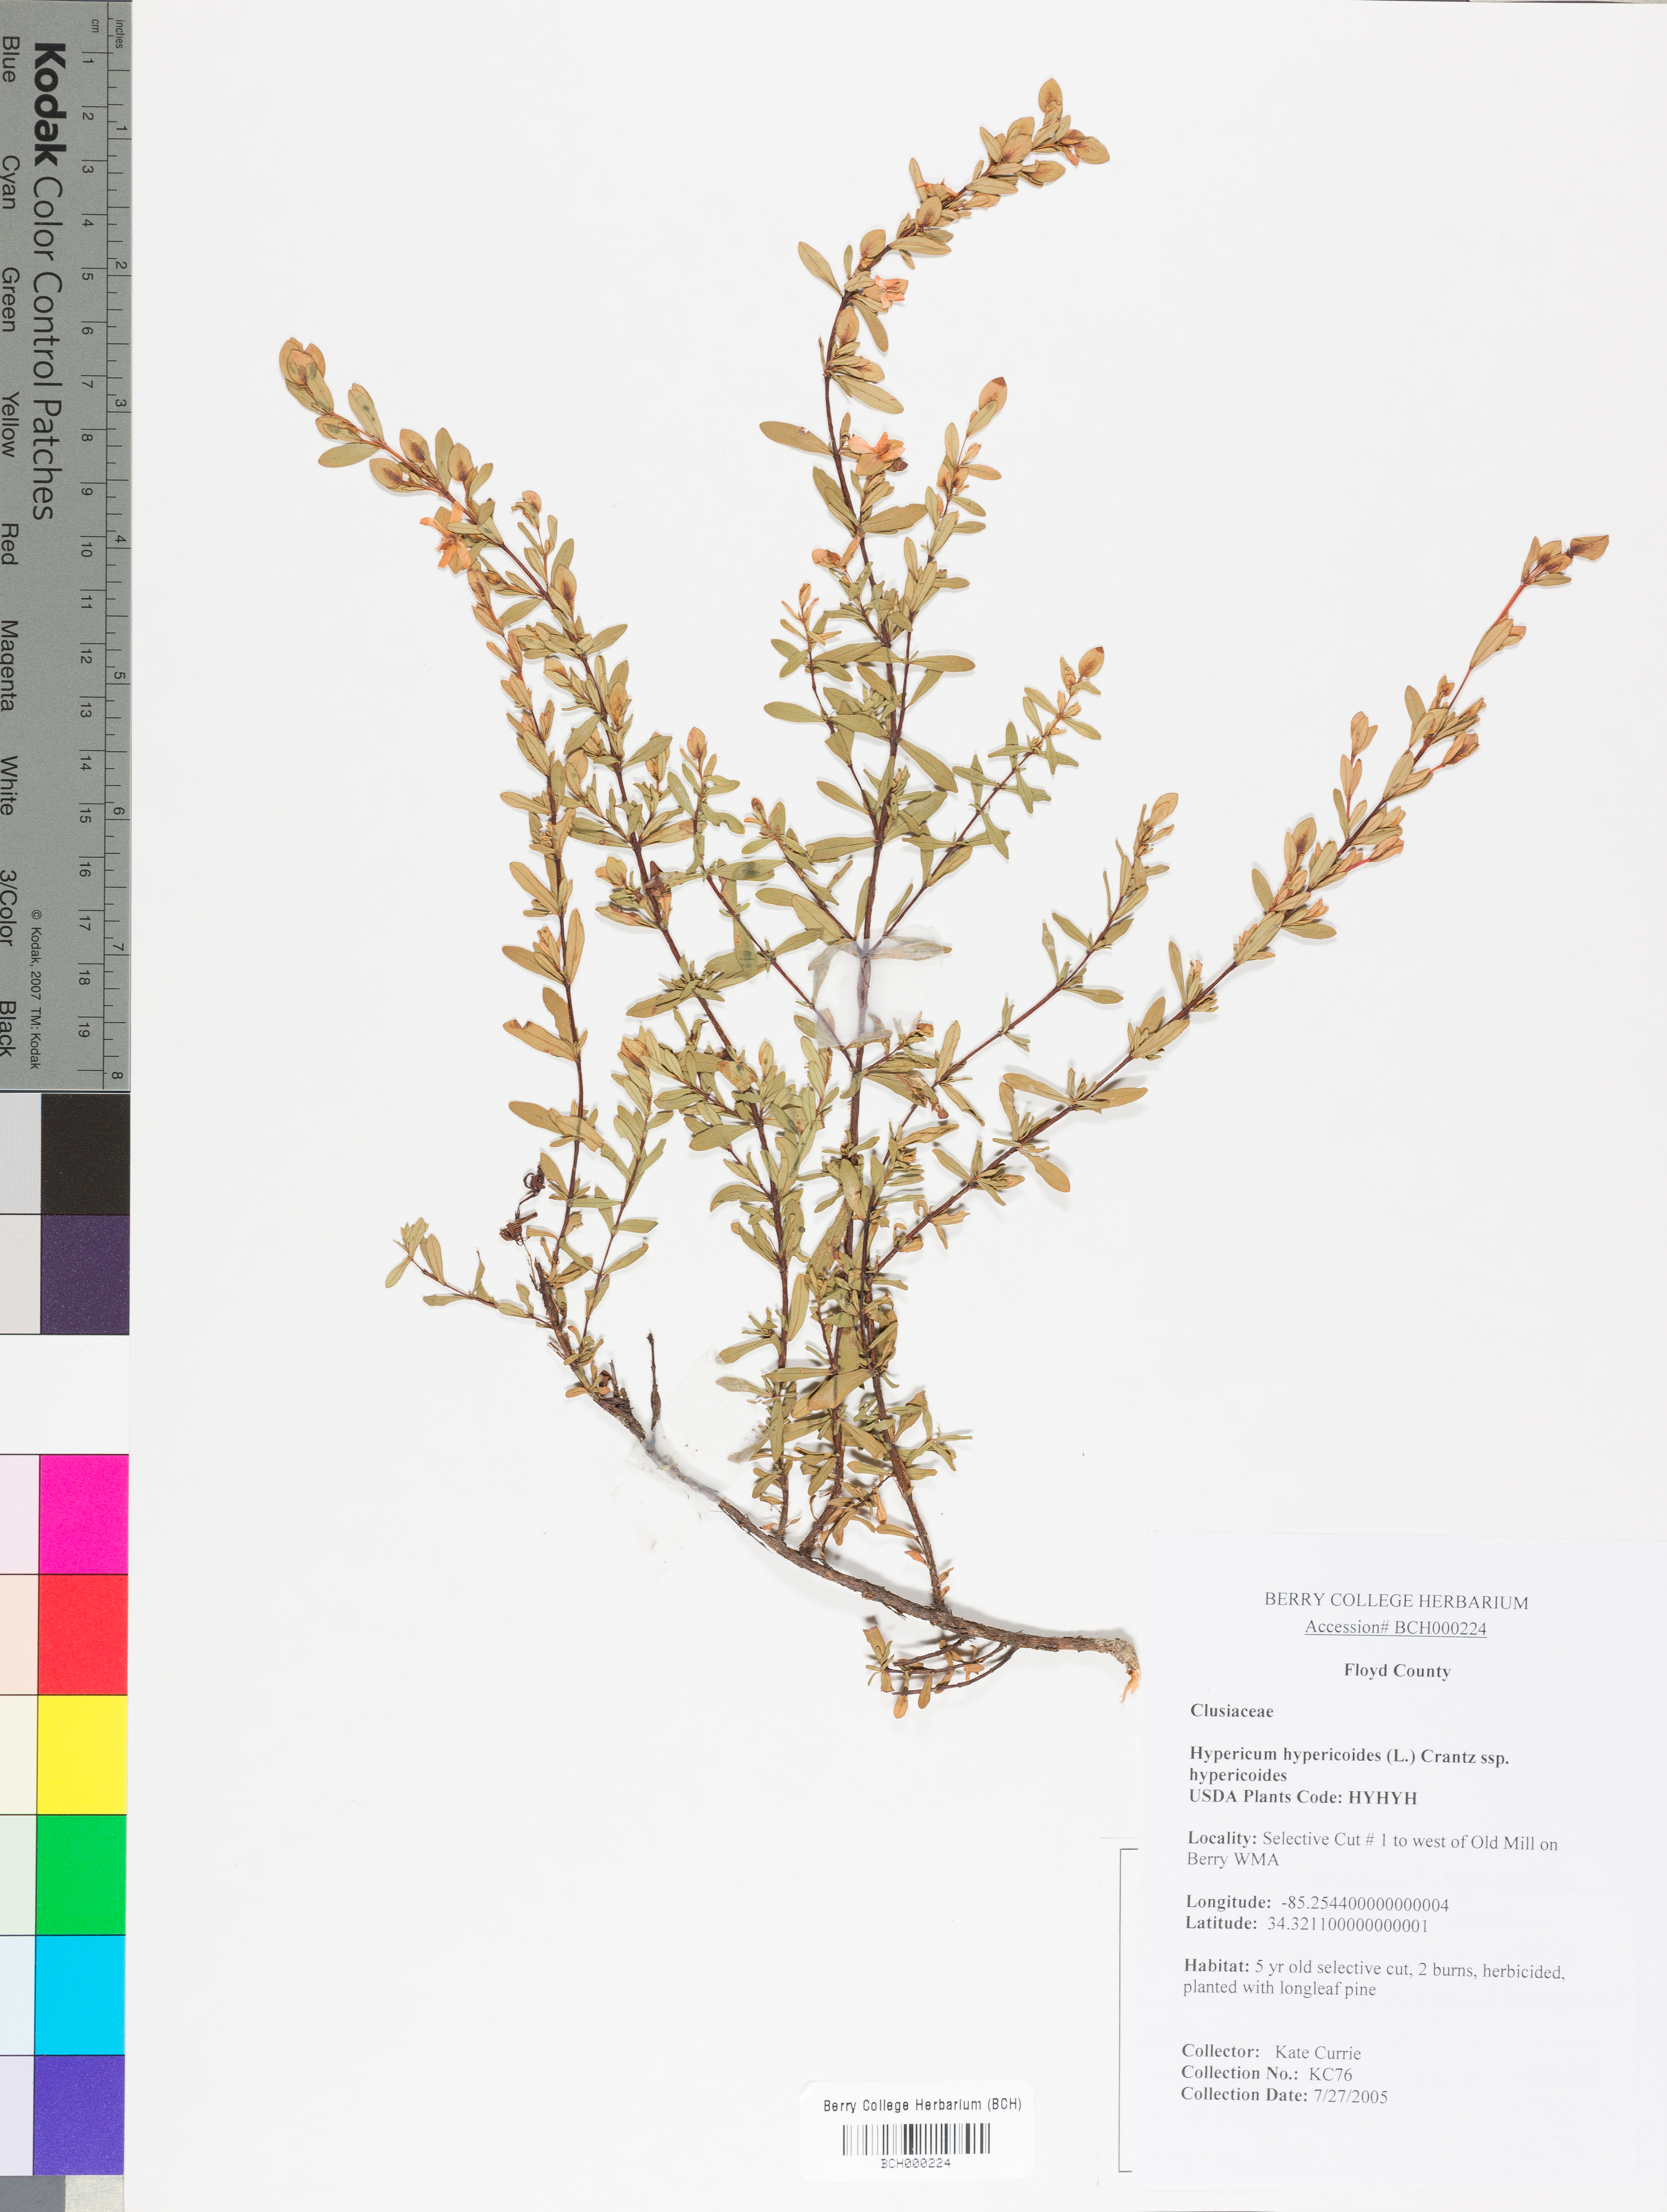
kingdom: Plantae
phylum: Tracheophyta
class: Magnoliopsida
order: Malpighiales
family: Hypericaceae
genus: Hypericum
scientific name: Hypericum hypericoides
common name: St. andrew's cross
